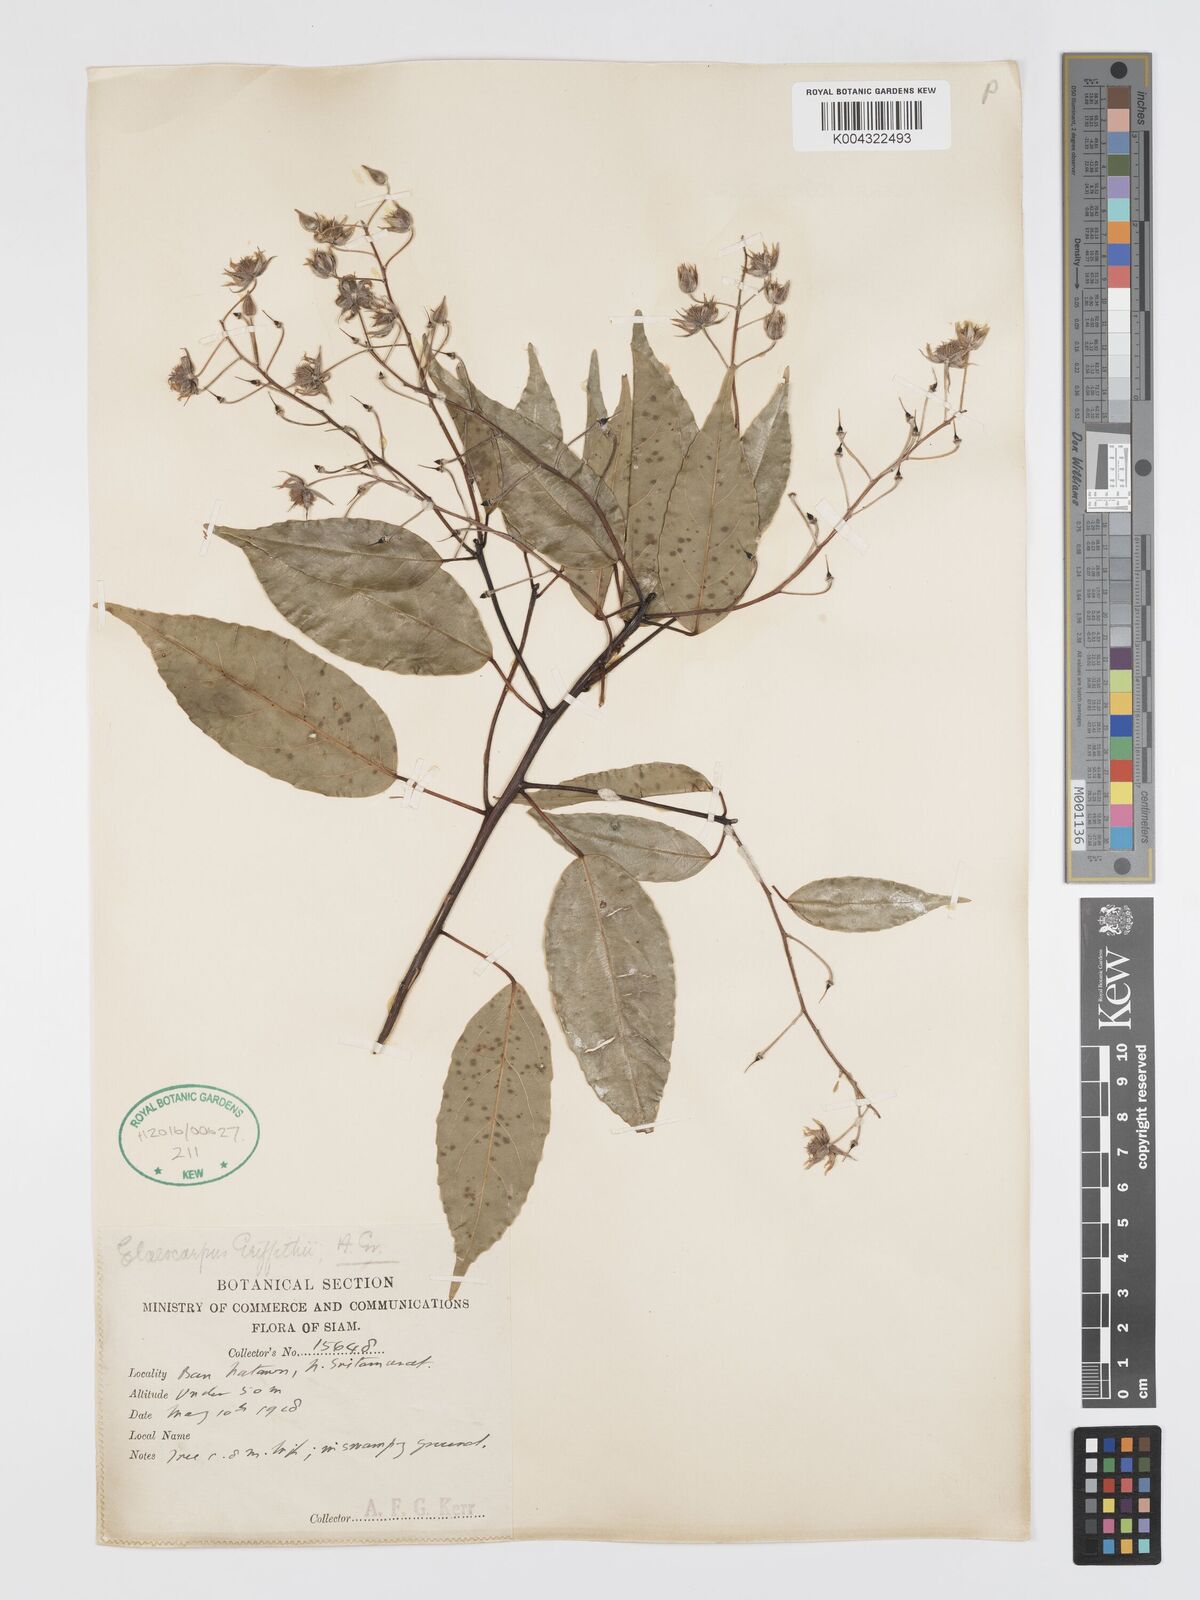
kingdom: Plantae
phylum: Tracheophyta
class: Magnoliopsida
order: Oxalidales
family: Elaeocarpaceae
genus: Elaeocarpus
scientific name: Elaeocarpus griffithii
